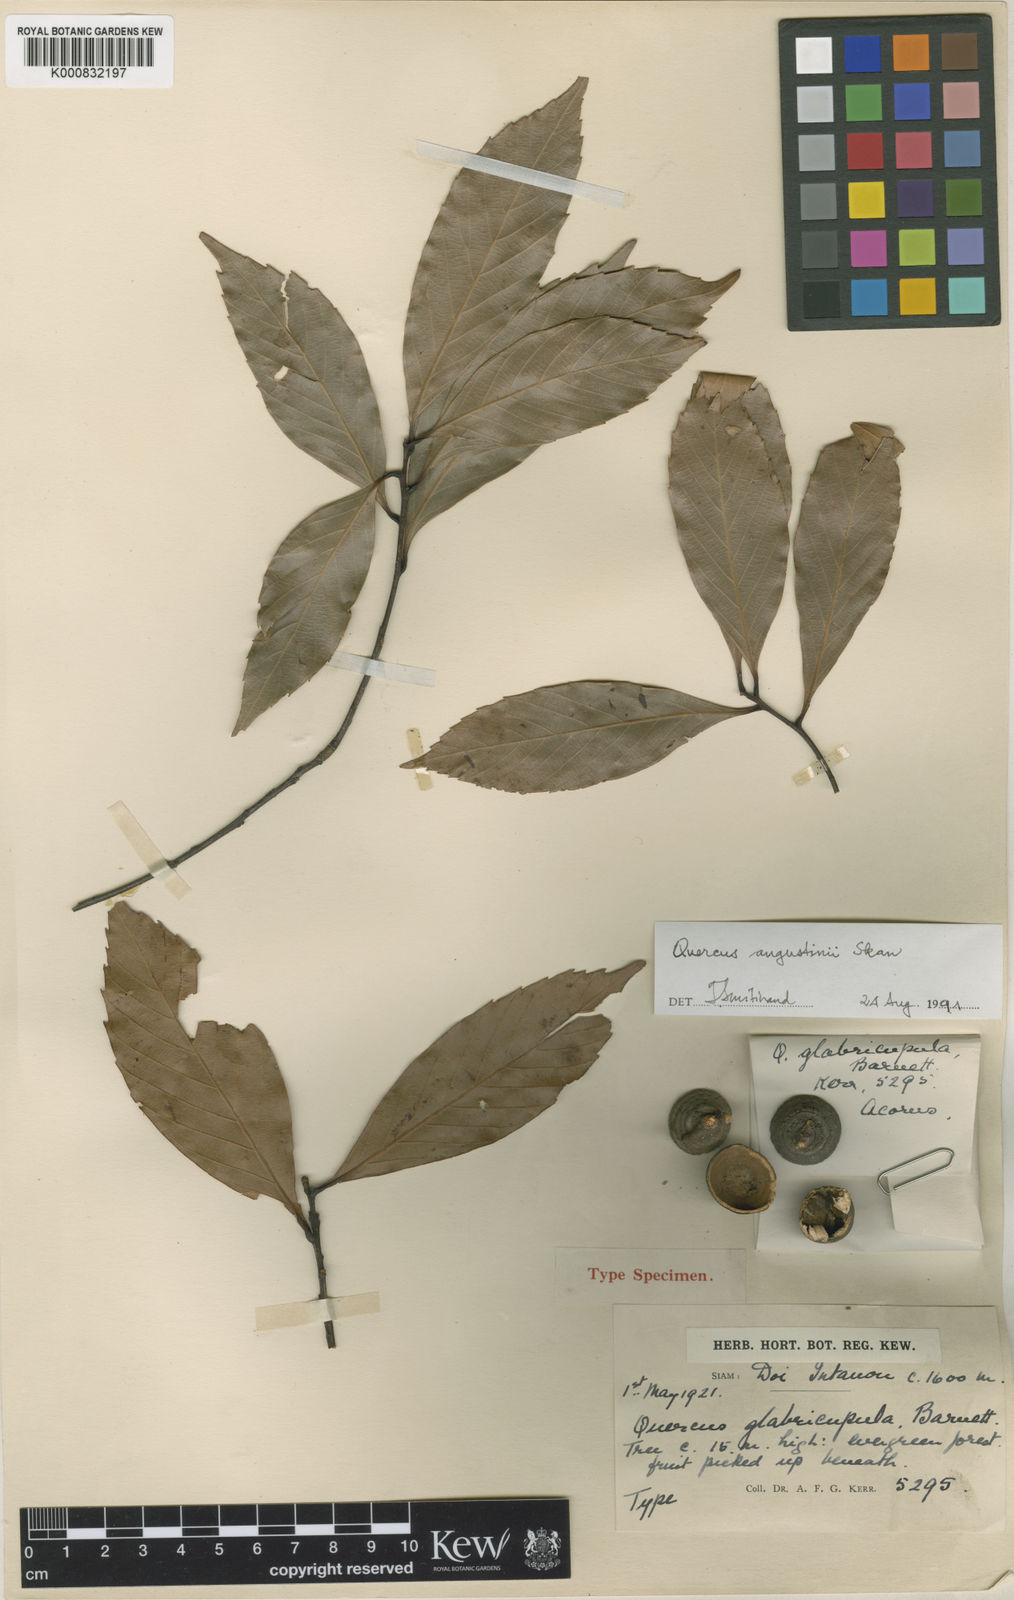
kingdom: Plantae
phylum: Tracheophyta
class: Magnoliopsida
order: Fagales
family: Fagaceae
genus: Quercus
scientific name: Quercus augustini
